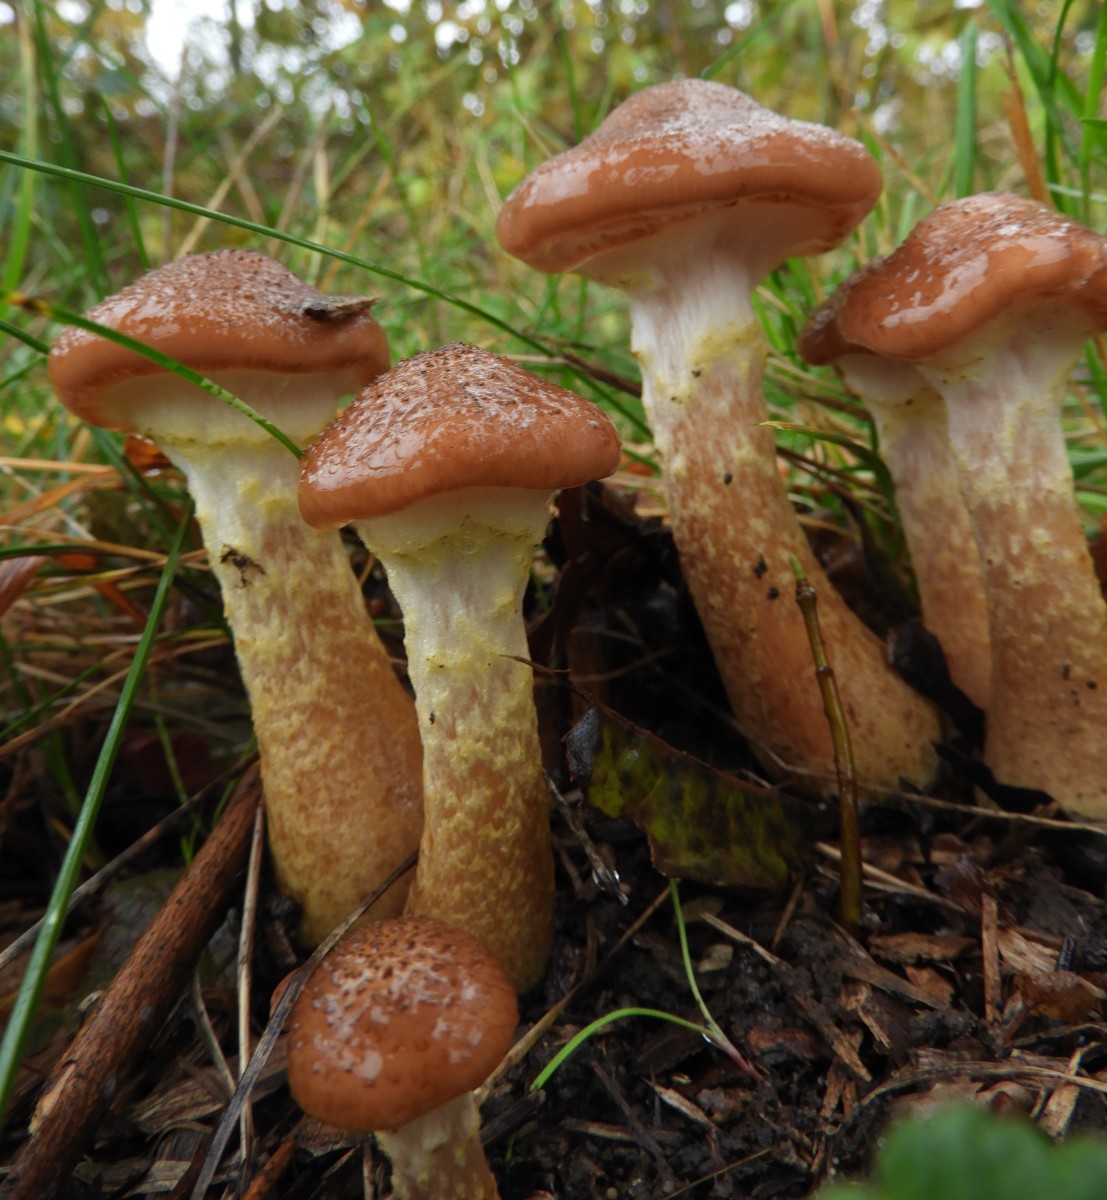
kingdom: Fungi
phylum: Basidiomycota
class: Agaricomycetes
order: Agaricales
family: Physalacriaceae
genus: Armillaria
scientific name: Armillaria lutea
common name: køllestokket honningsvamp
